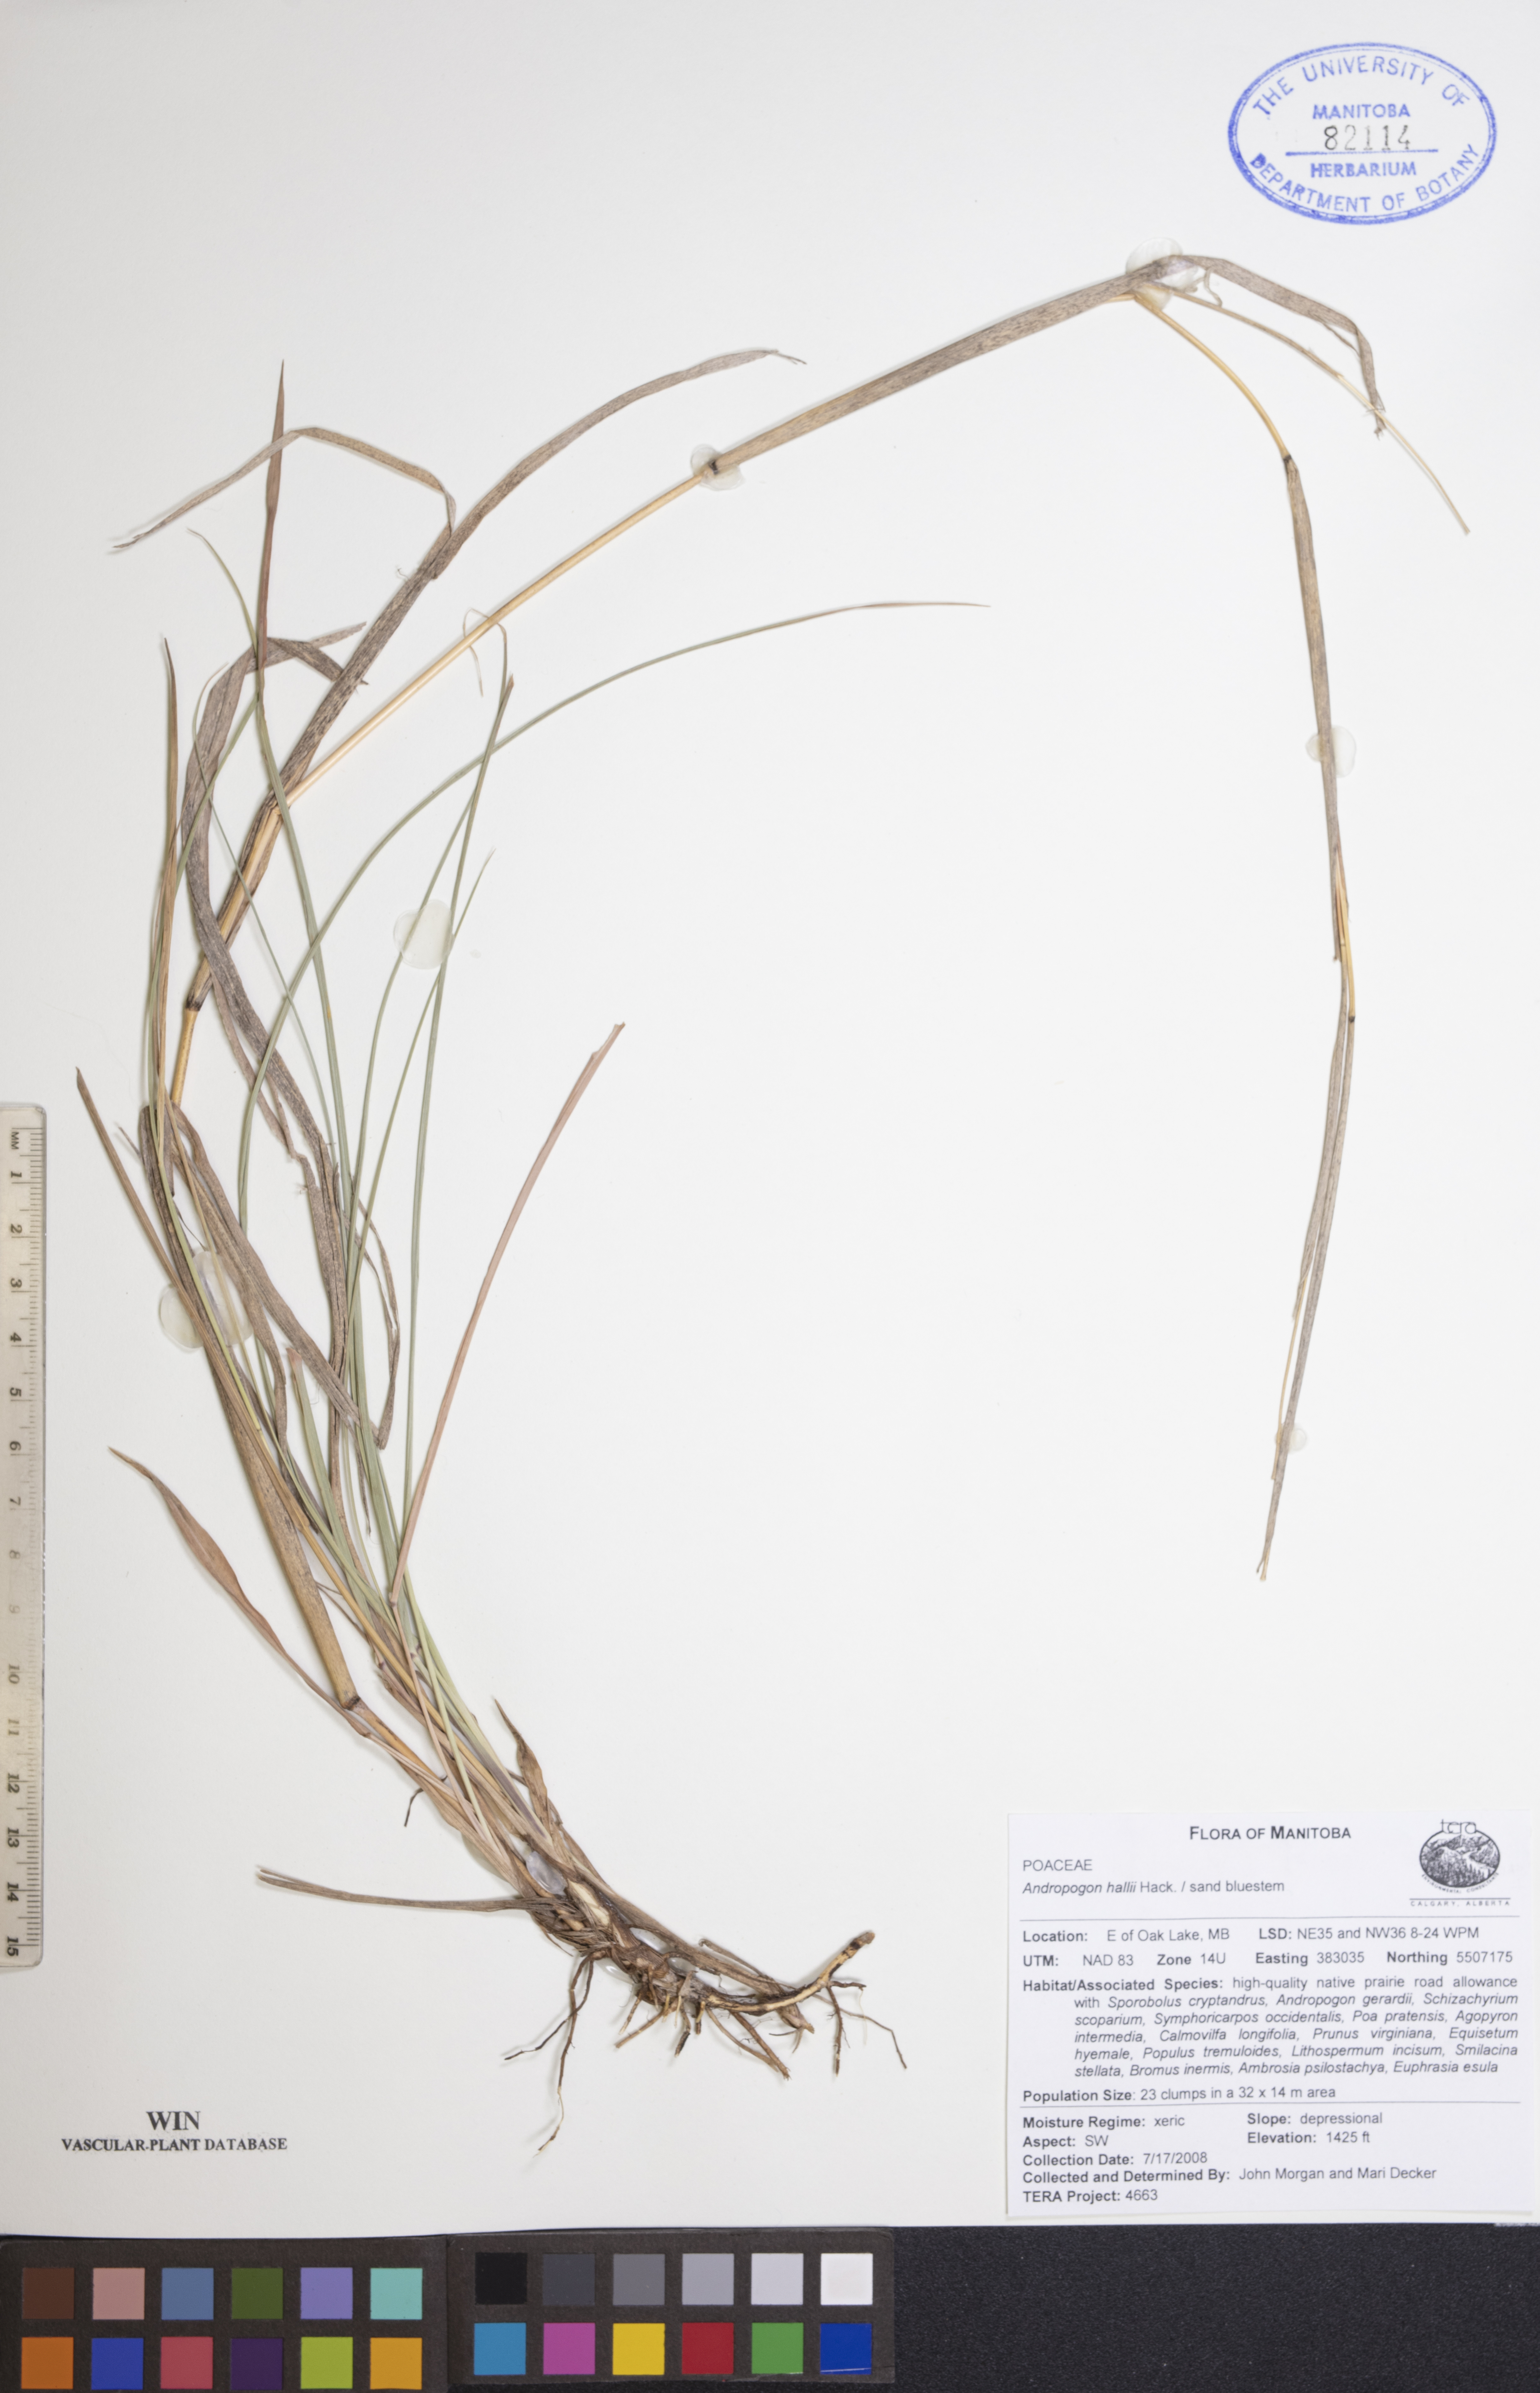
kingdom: Plantae
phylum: Tracheophyta
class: Liliopsida
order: Poales
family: Poaceae
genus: Andropogon
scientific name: Andropogon hallii
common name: Sand bluestem
